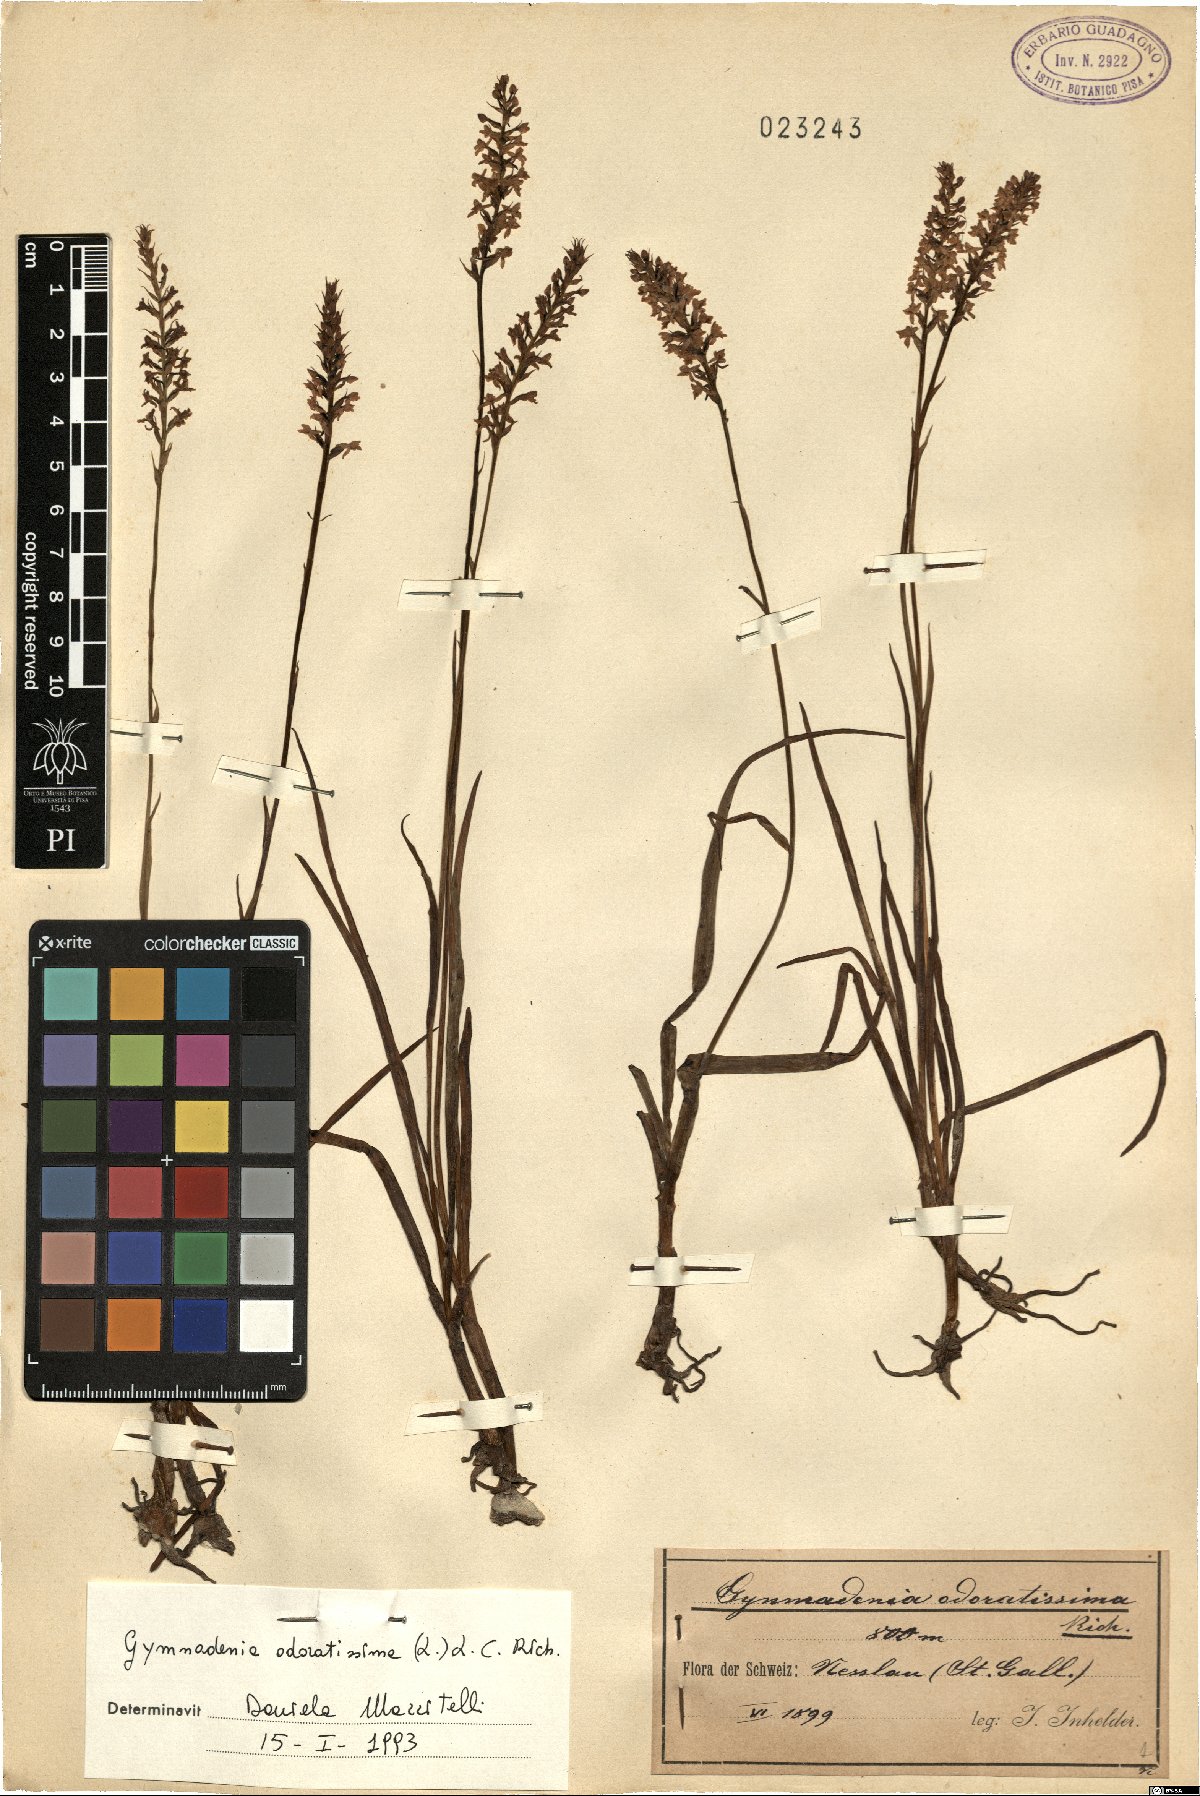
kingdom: Plantae
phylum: Tracheophyta
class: Liliopsida
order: Asparagales
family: Orchidaceae
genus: Gymnadenia
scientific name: Gymnadenia odoratissima
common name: Scented gymnadenia
